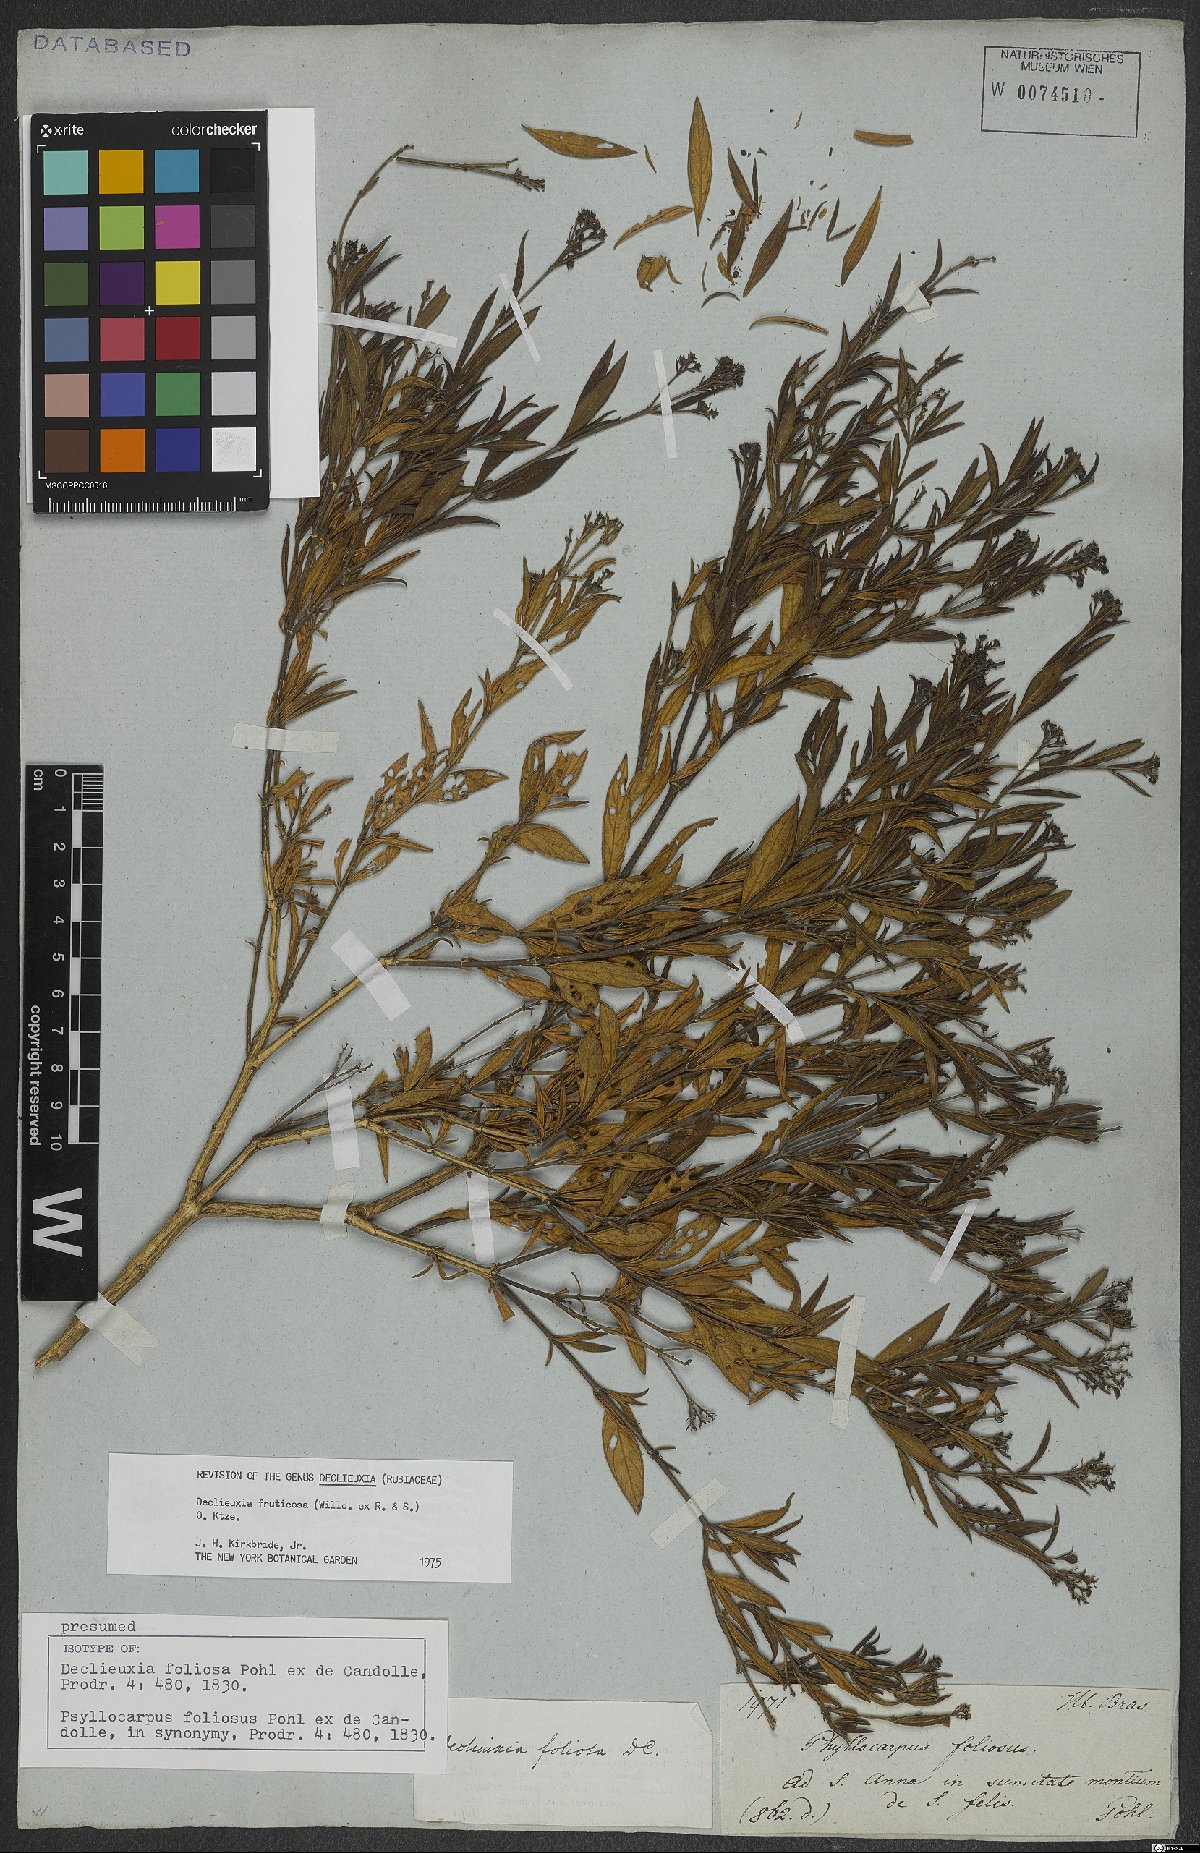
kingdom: Plantae
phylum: Tracheophyta
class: Magnoliopsida
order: Gentianales
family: Rubiaceae
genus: Declieuxia
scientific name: Declieuxia fruticosa
